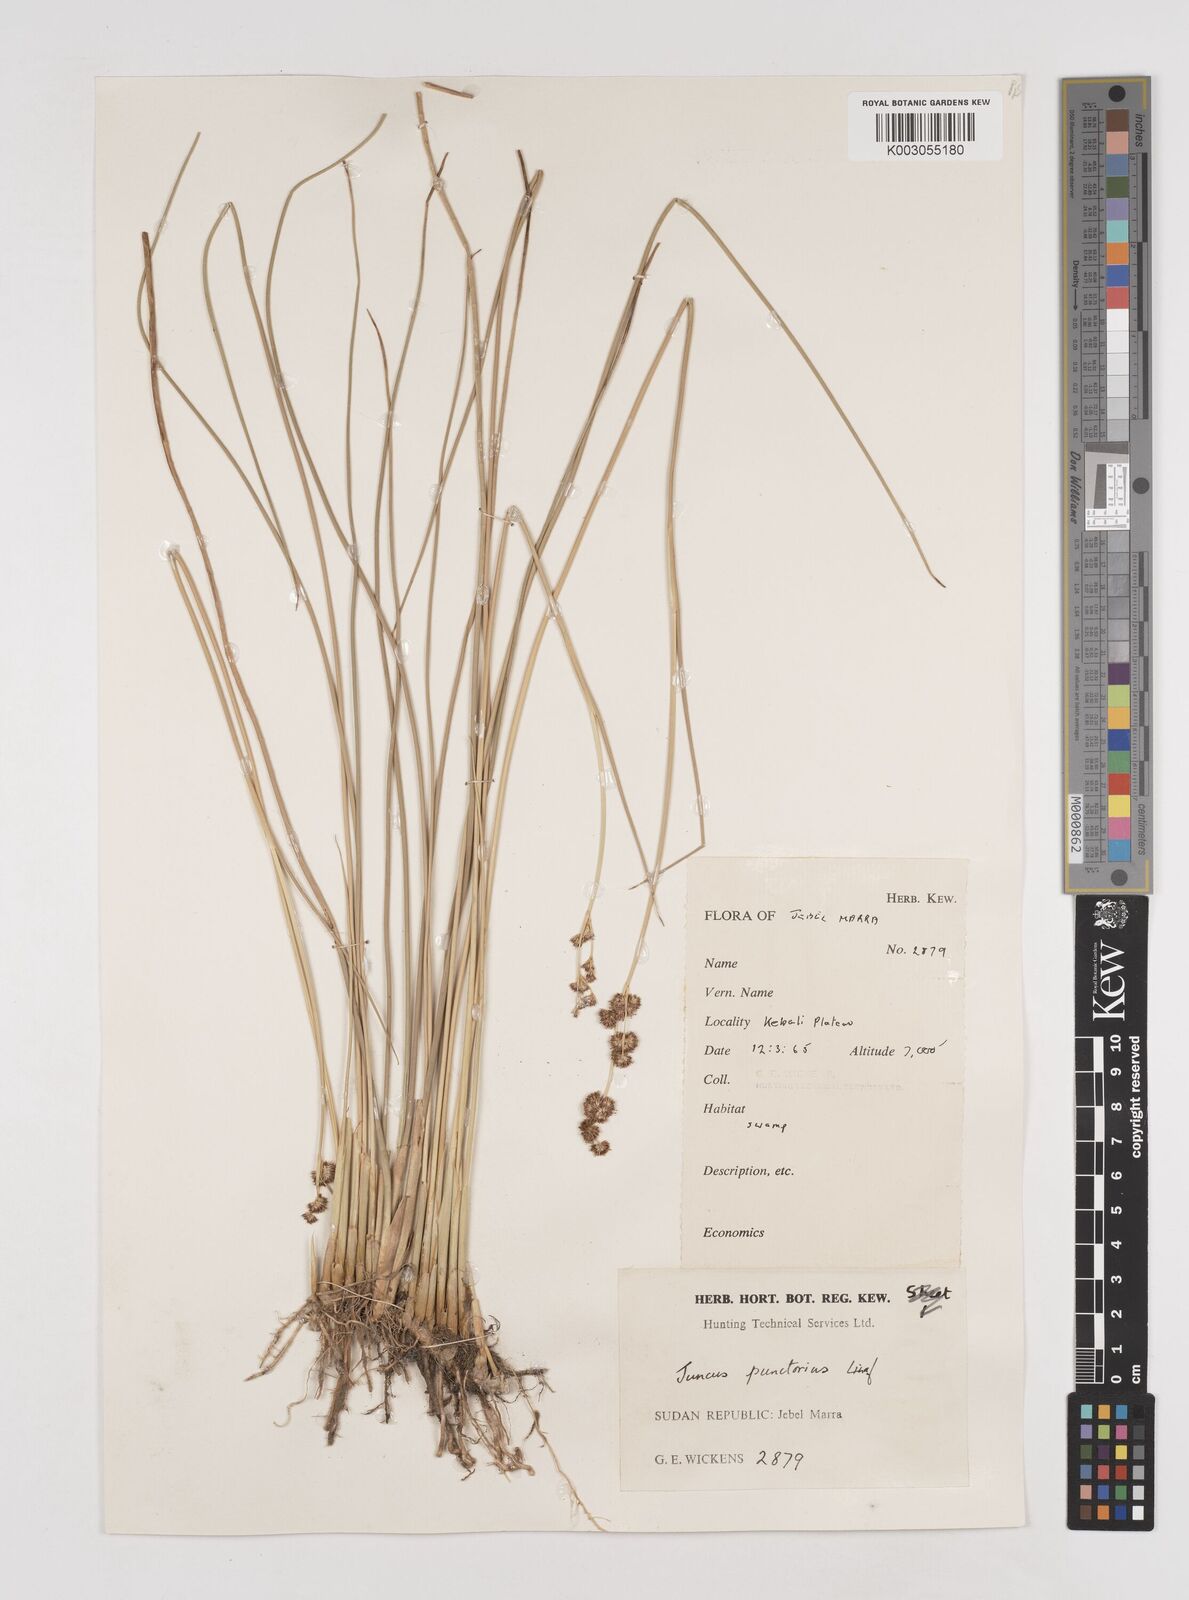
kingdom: Plantae
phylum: Tracheophyta
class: Liliopsida
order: Poales
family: Juncaceae
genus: Juncus
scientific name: Juncus punctorius
